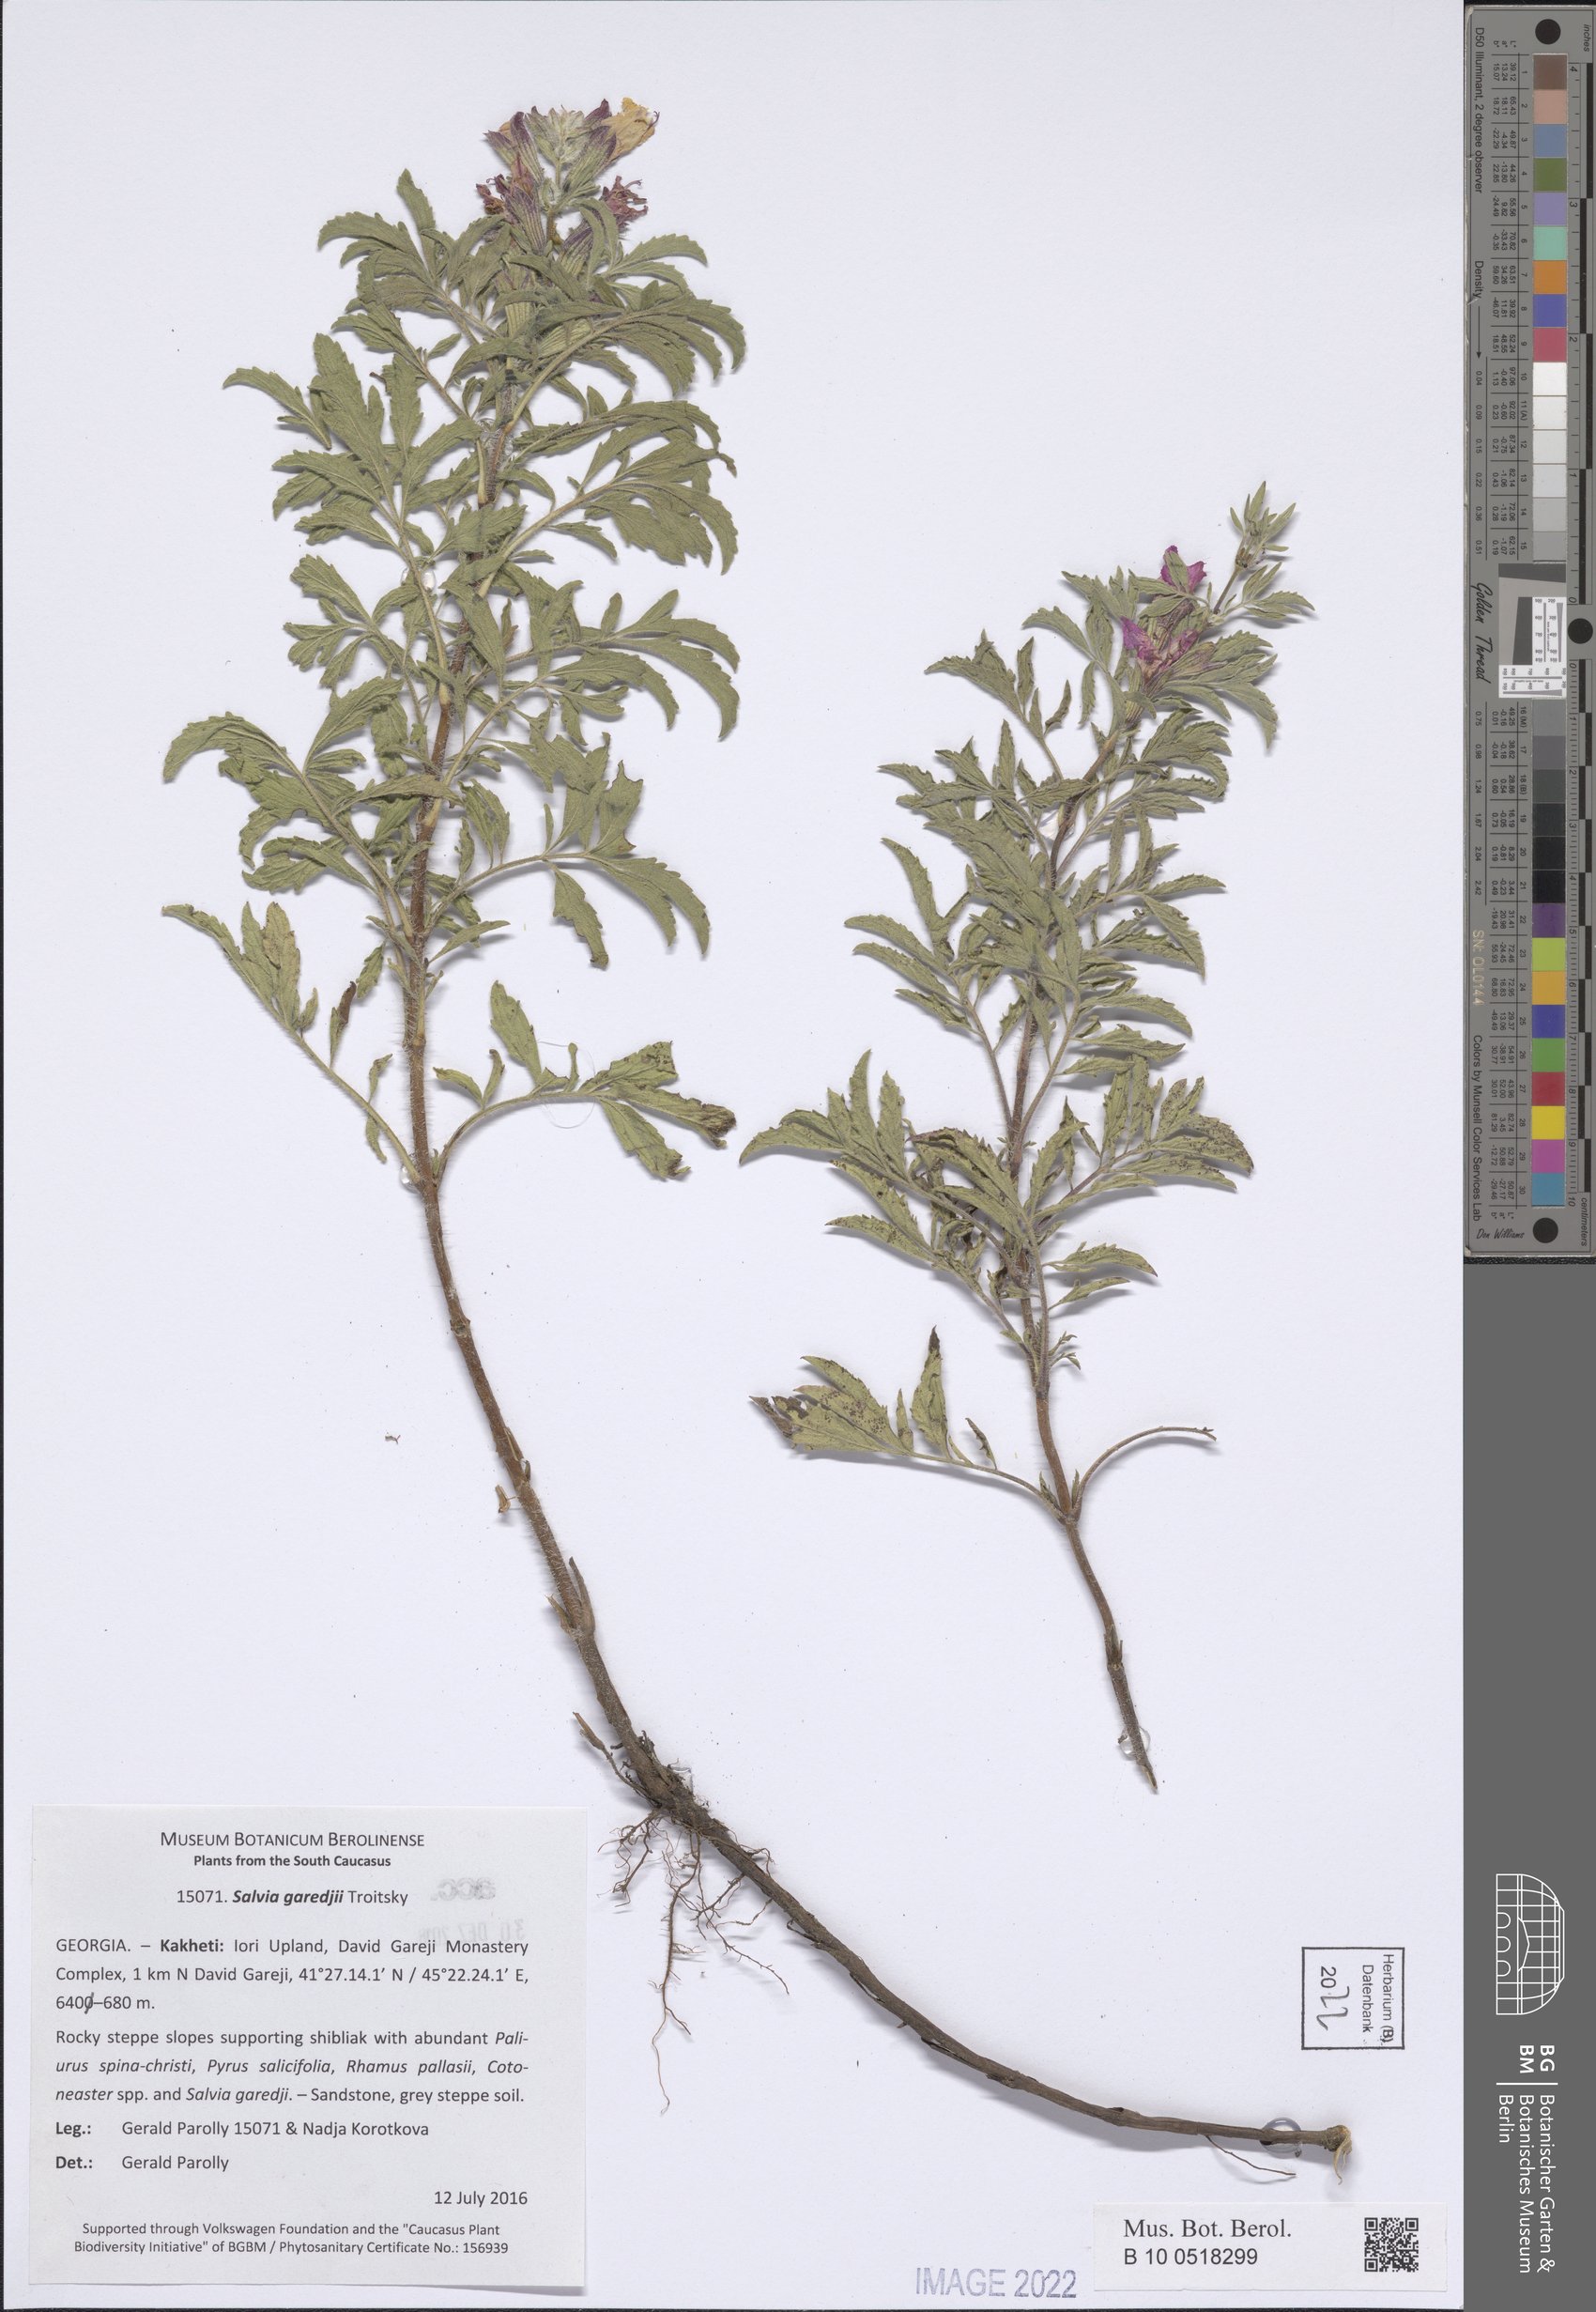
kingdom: Plantae
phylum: Tracheophyta
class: Magnoliopsida
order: Lamiales
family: Lamiaceae
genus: Salvia
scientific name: Salvia garedjii
